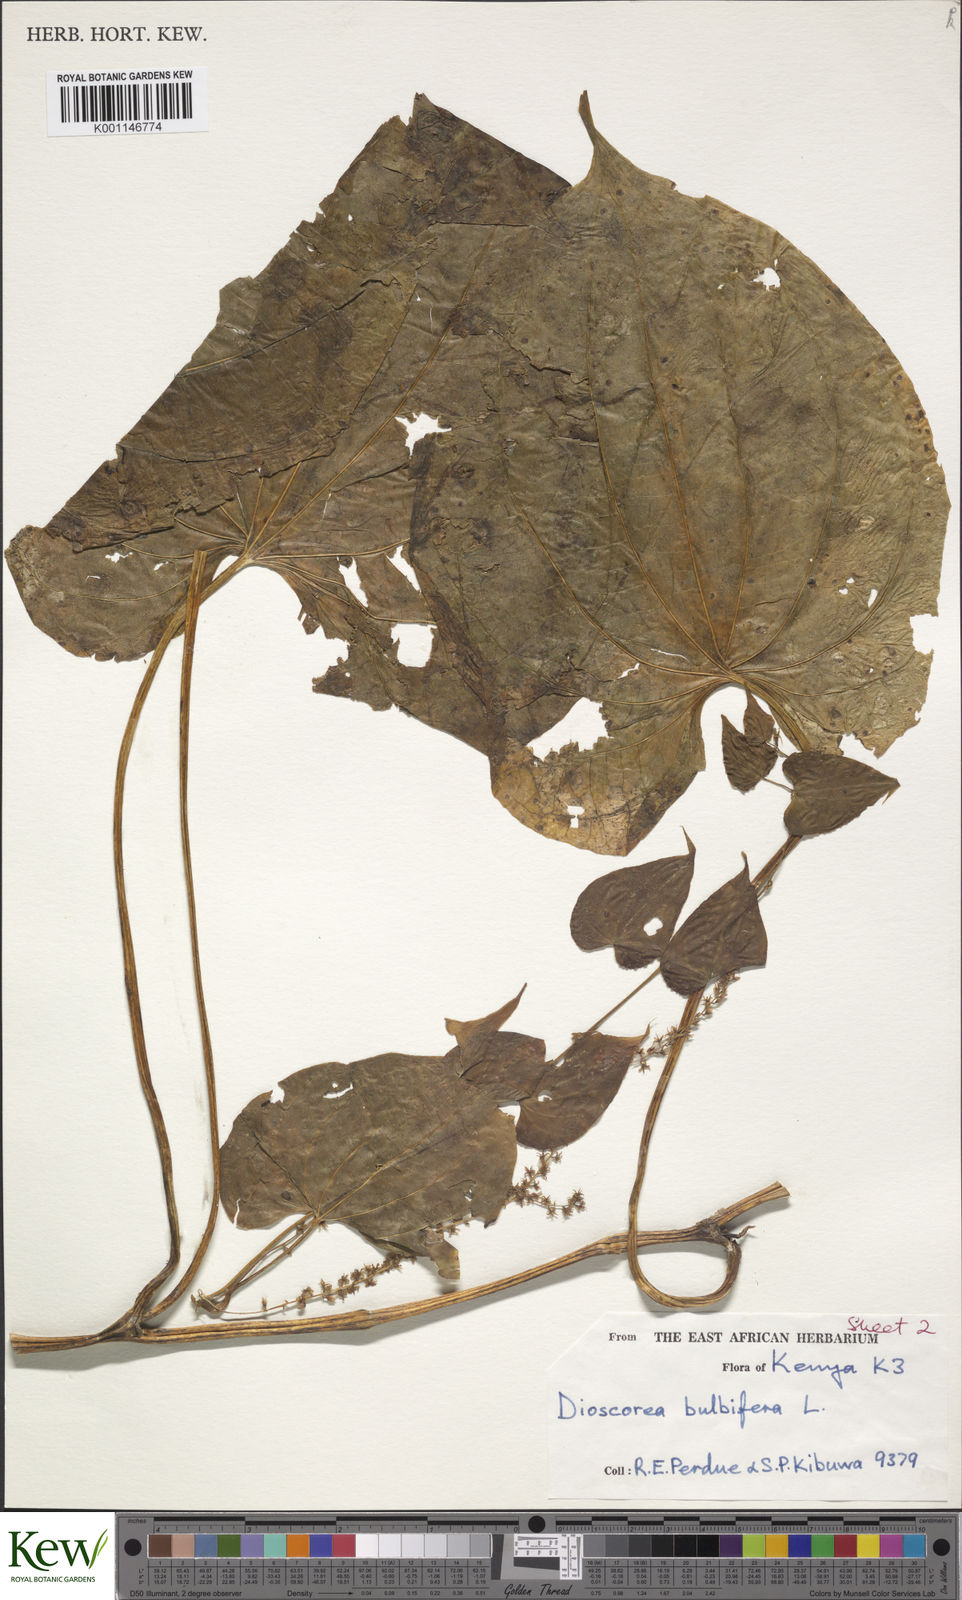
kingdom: Plantae
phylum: Tracheophyta
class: Liliopsida
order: Dioscoreales
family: Dioscoreaceae
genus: Dioscorea
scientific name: Dioscorea asteriscus
